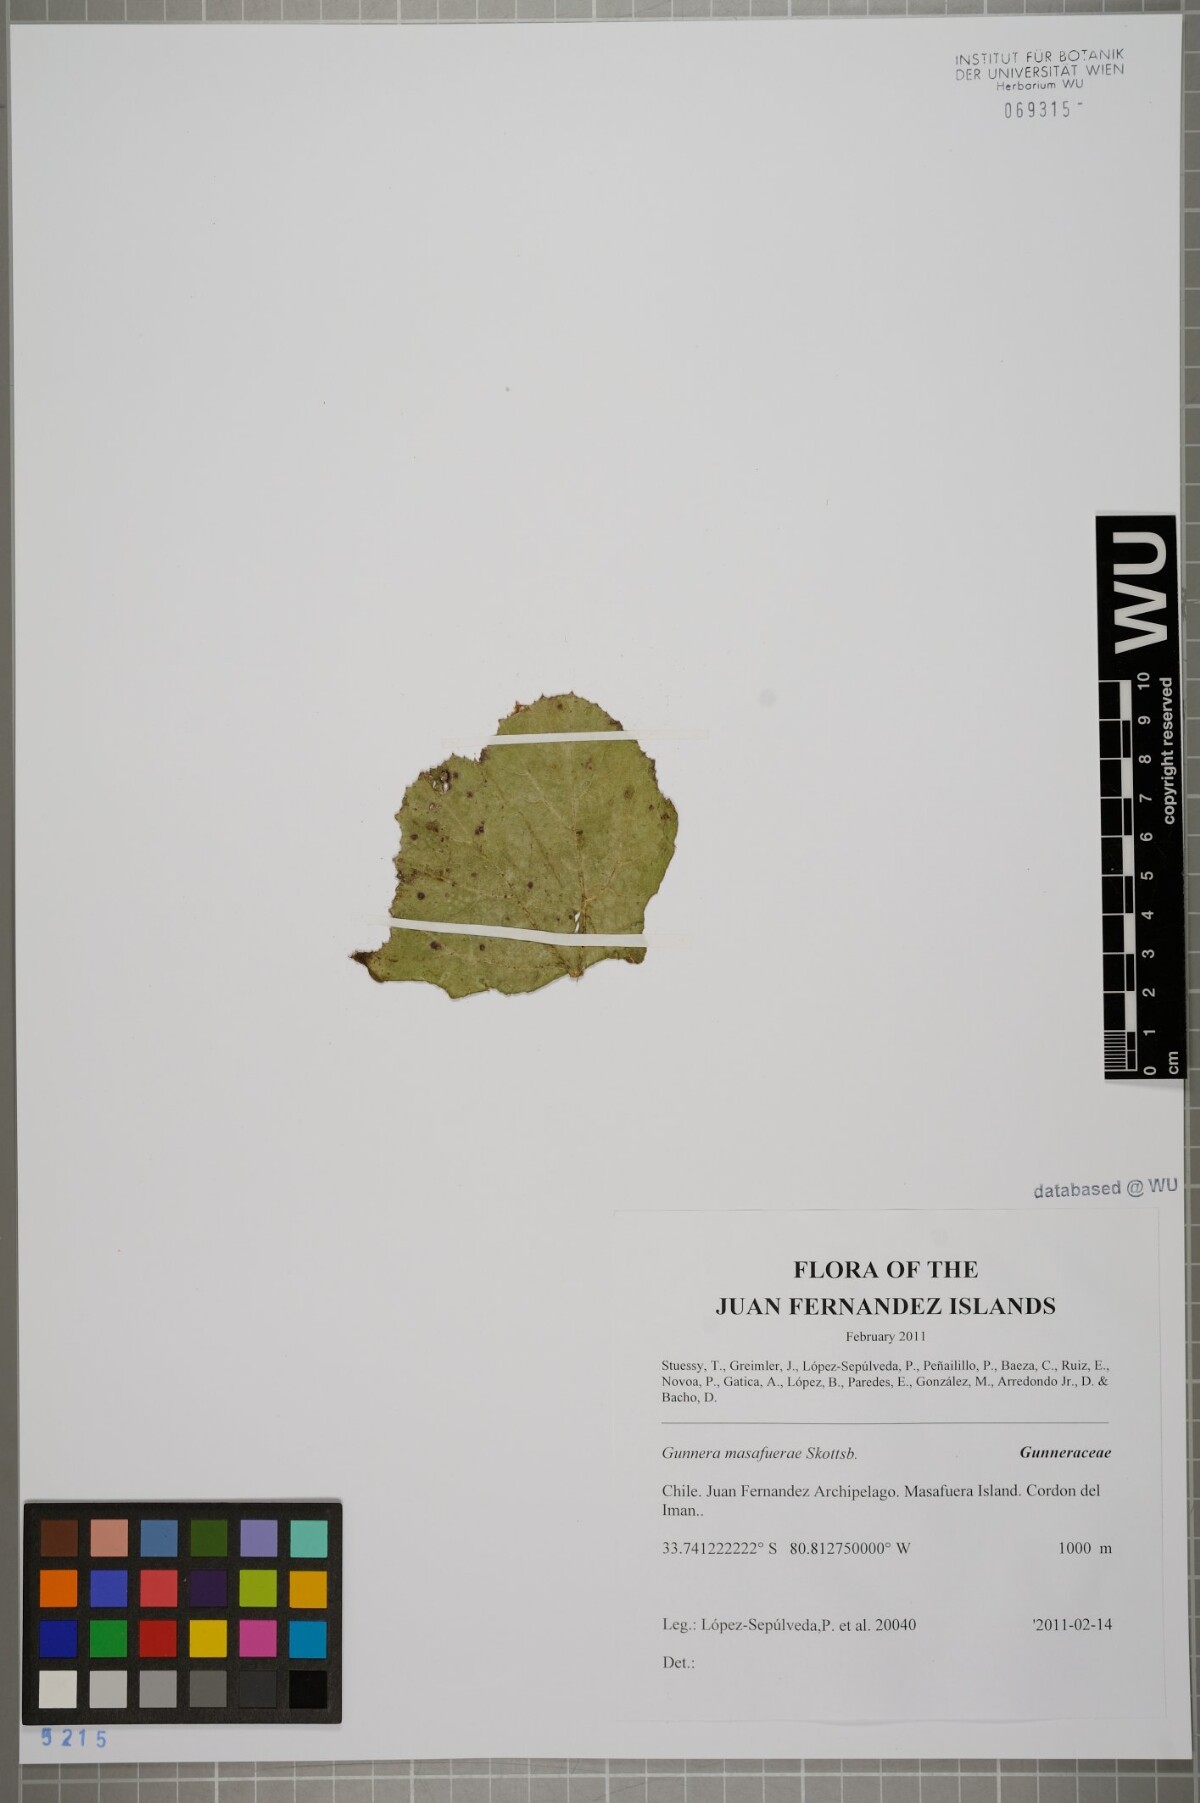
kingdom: Plantae
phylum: Tracheophyta
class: Magnoliopsida
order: Gunnerales
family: Gunneraceae
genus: Gunnera
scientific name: Gunnera masafuerae
